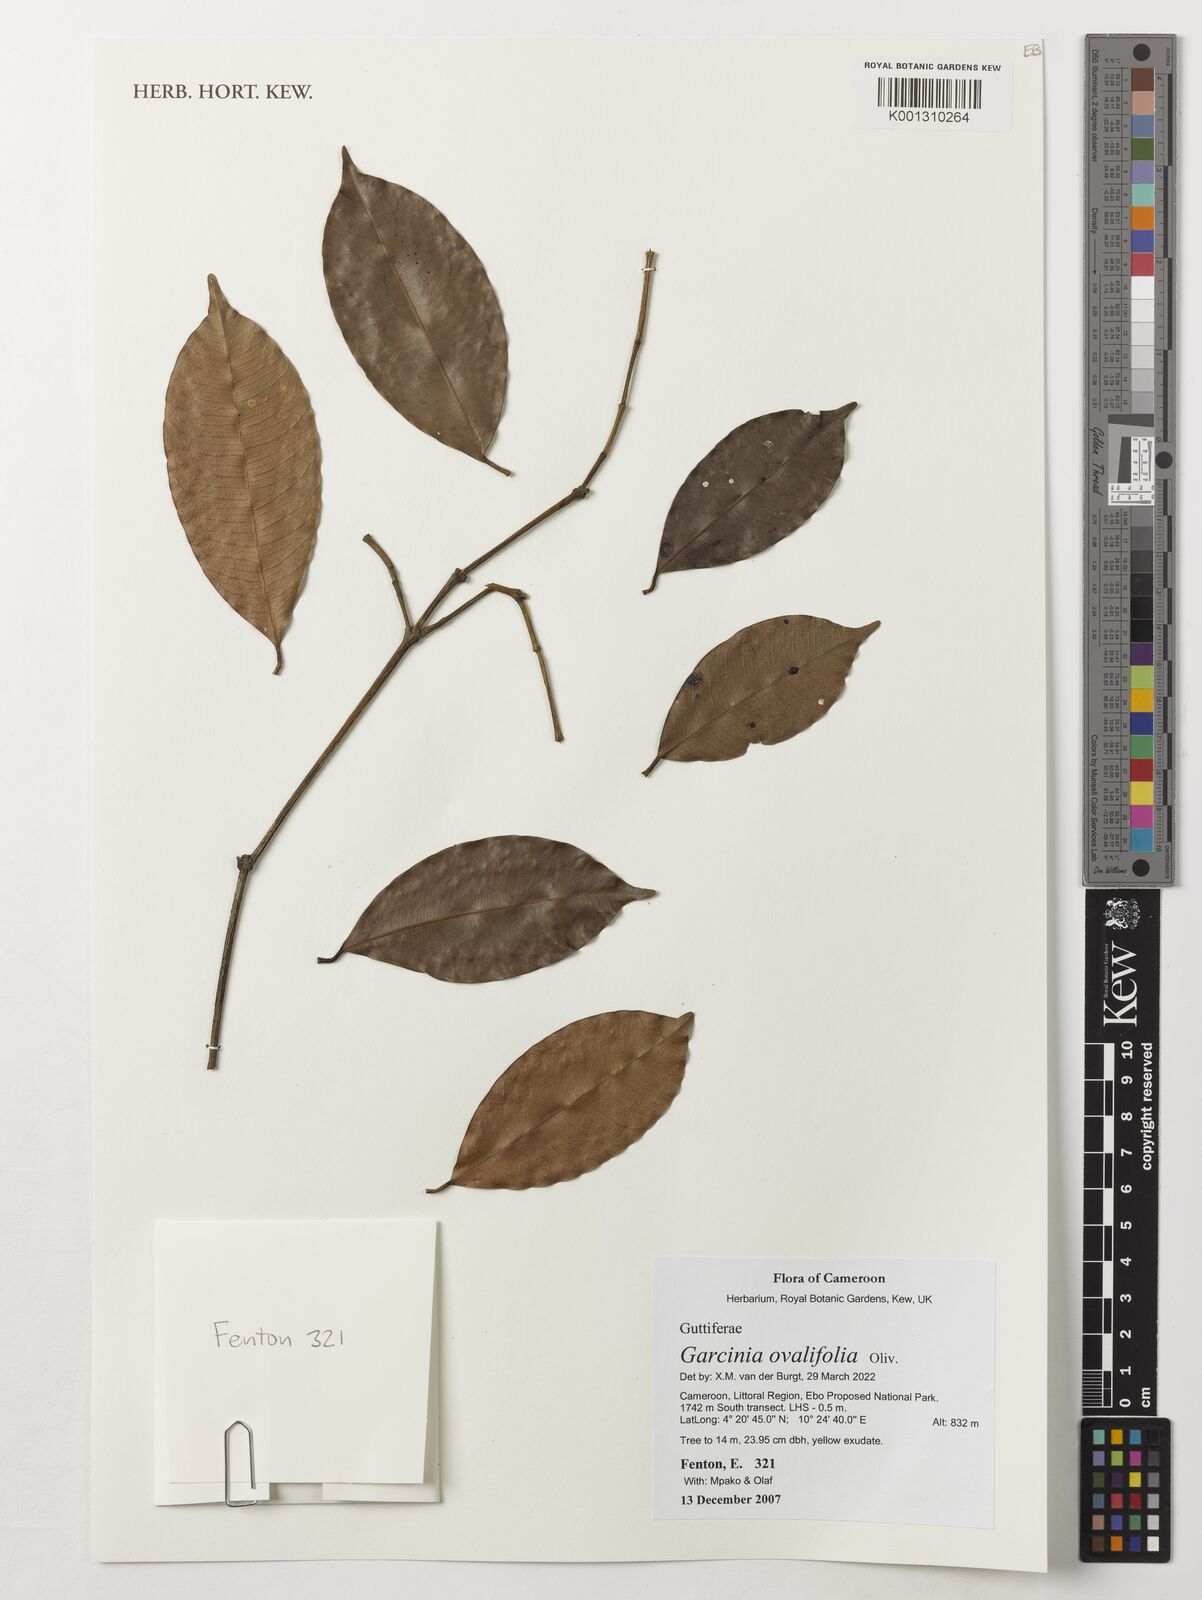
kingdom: Plantae
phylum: Tracheophyta
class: Magnoliopsida
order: Malpighiales
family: Clusiaceae
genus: Garcinia
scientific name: Garcinia ovalifolia
